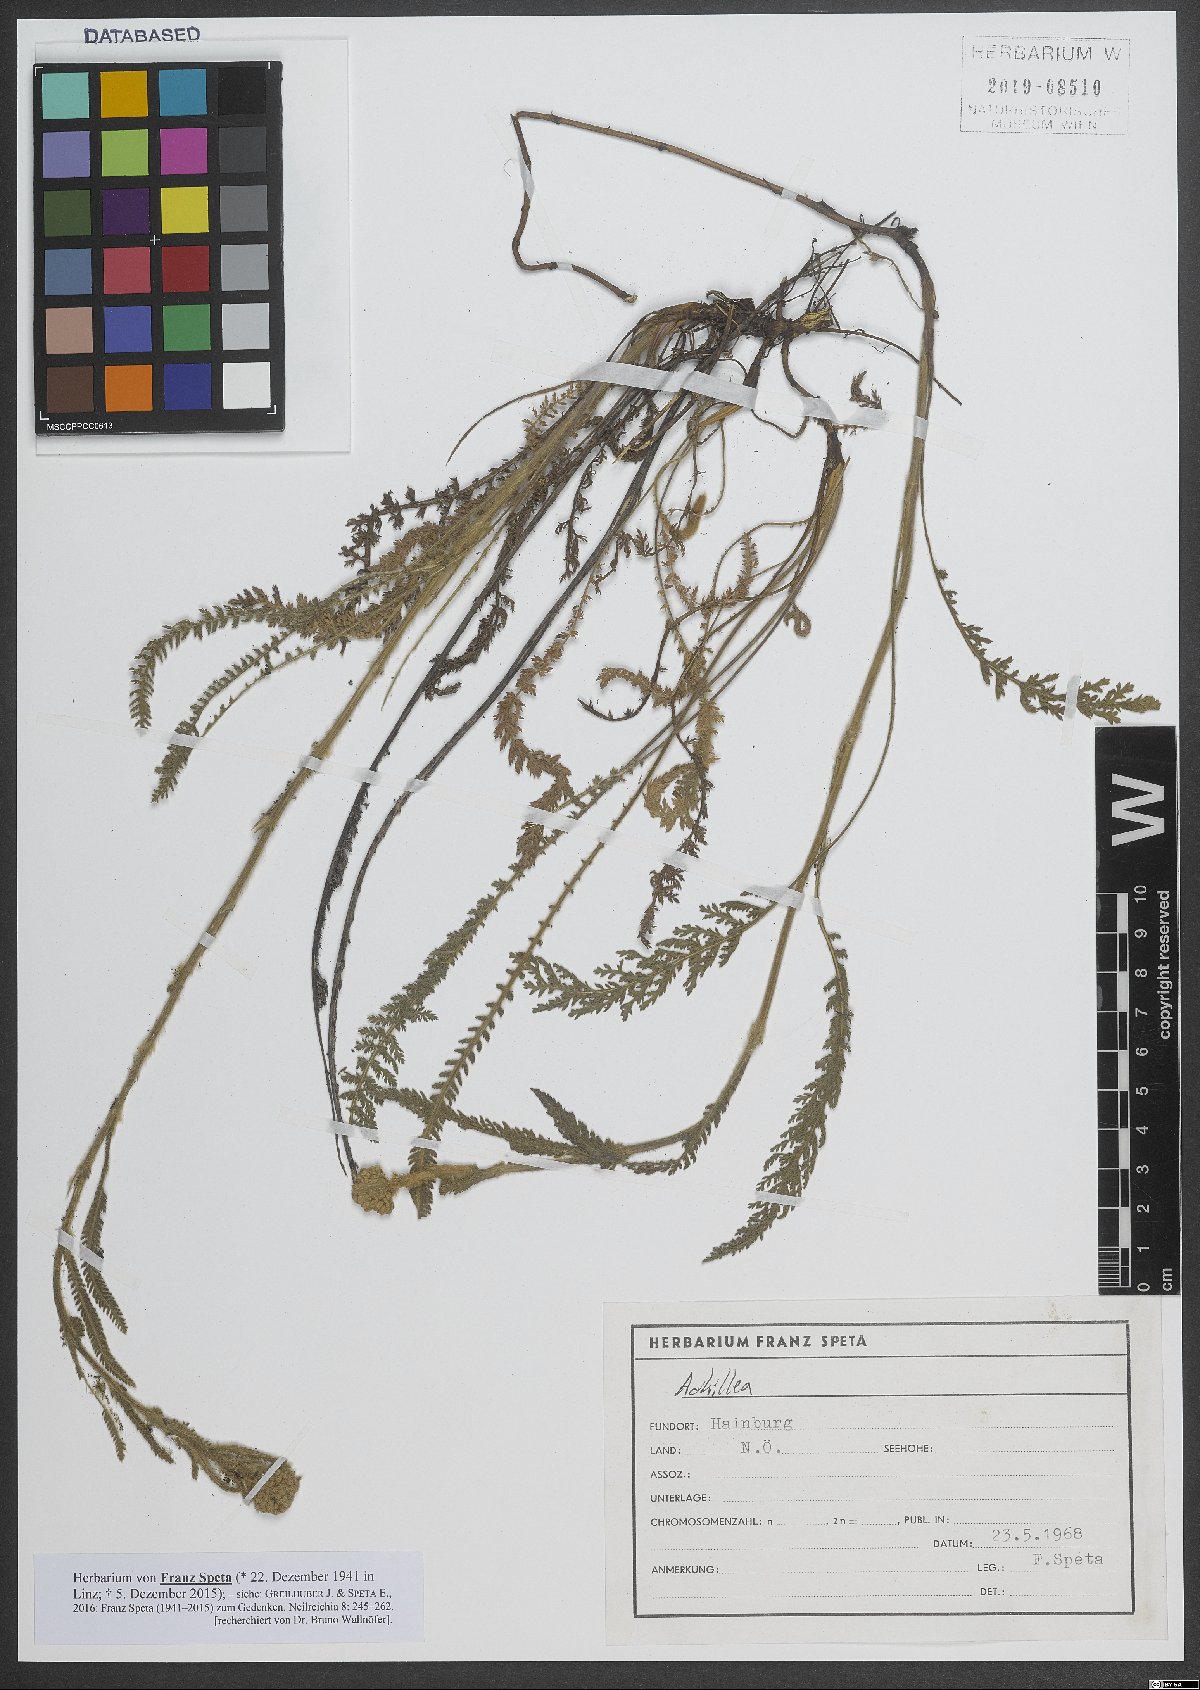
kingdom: Plantae
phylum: Tracheophyta
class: Magnoliopsida
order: Asterales
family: Asteraceae
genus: Achillea
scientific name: Achillea
